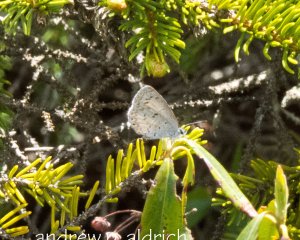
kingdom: Animalia
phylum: Arthropoda
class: Insecta
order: Lepidoptera
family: Lycaenidae
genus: Celastrina
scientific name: Celastrina
